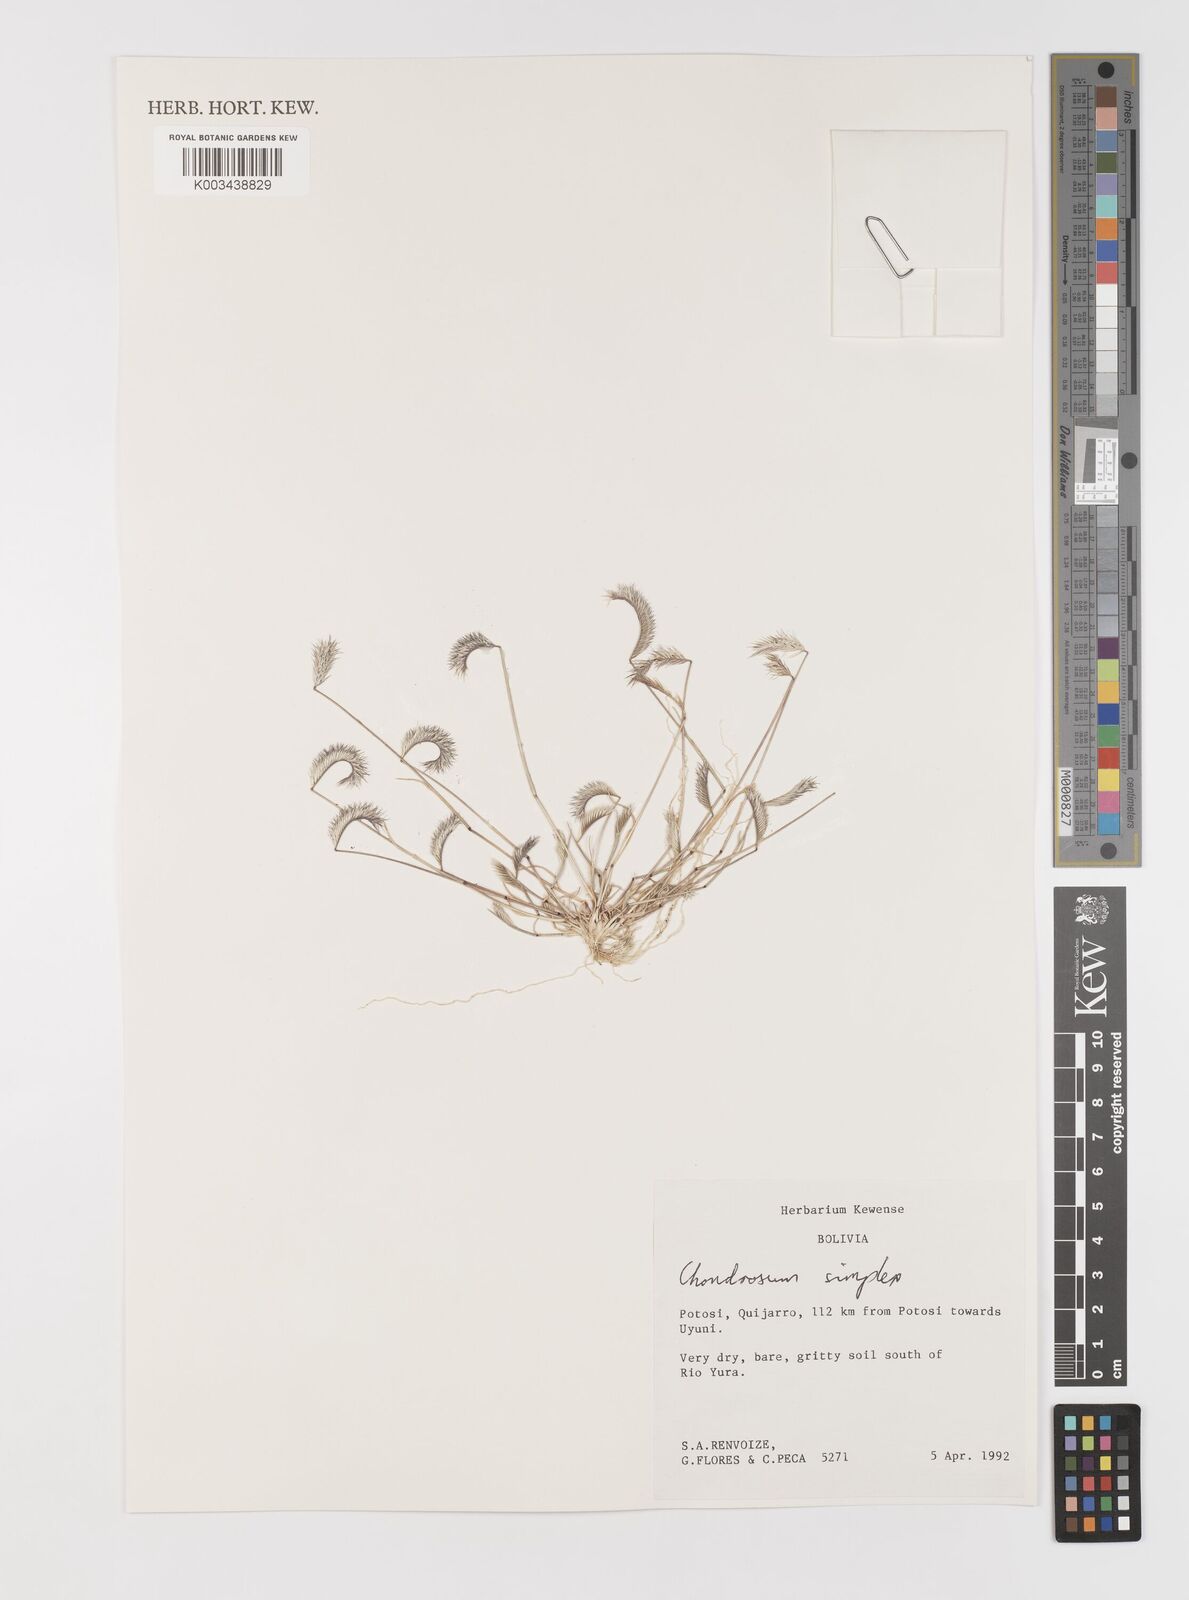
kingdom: Plantae
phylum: Tracheophyta
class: Liliopsida
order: Poales
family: Poaceae
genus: Bouteloua
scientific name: Bouteloua simplex
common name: Mat grama
